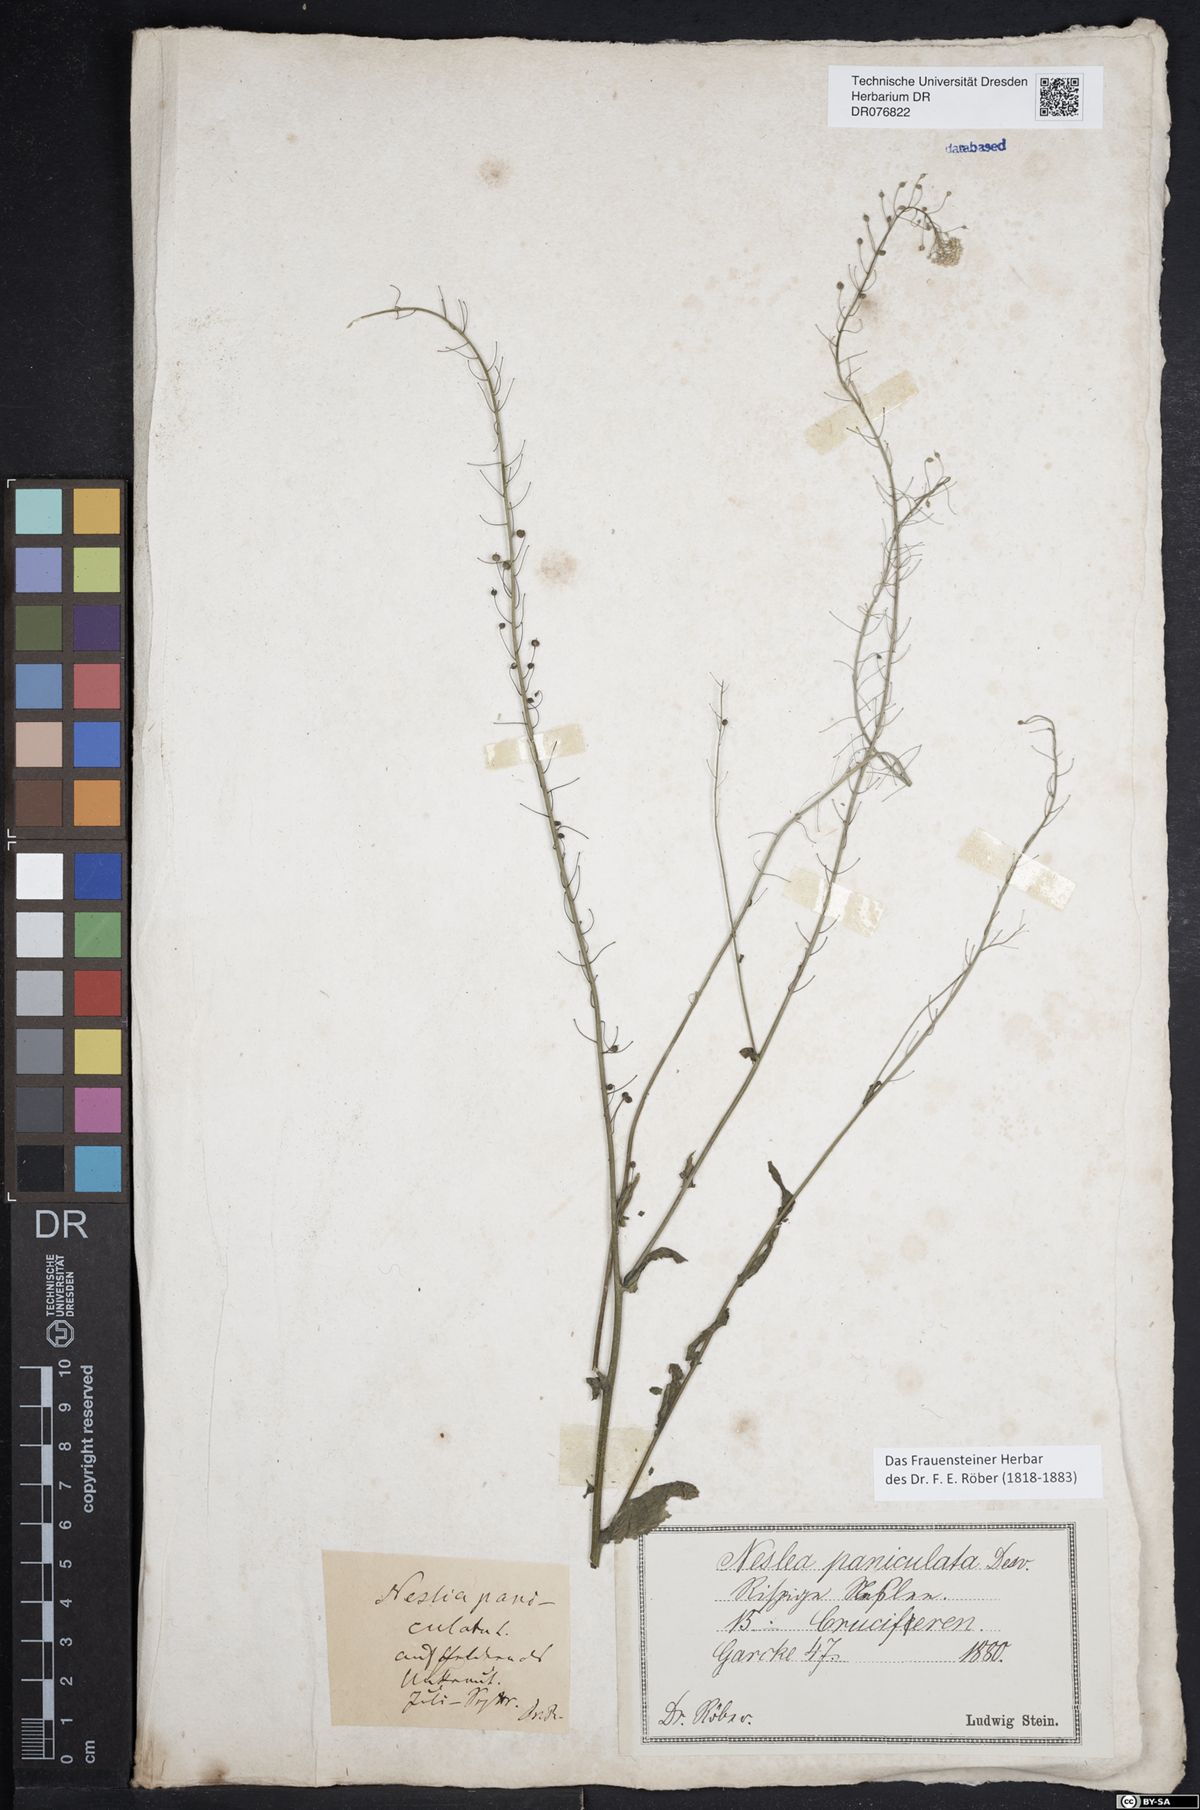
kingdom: Plantae
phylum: Tracheophyta
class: Magnoliopsida
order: Brassicales
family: Brassicaceae
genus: Neslia
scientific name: Neslia paniculata
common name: Ball mustard
